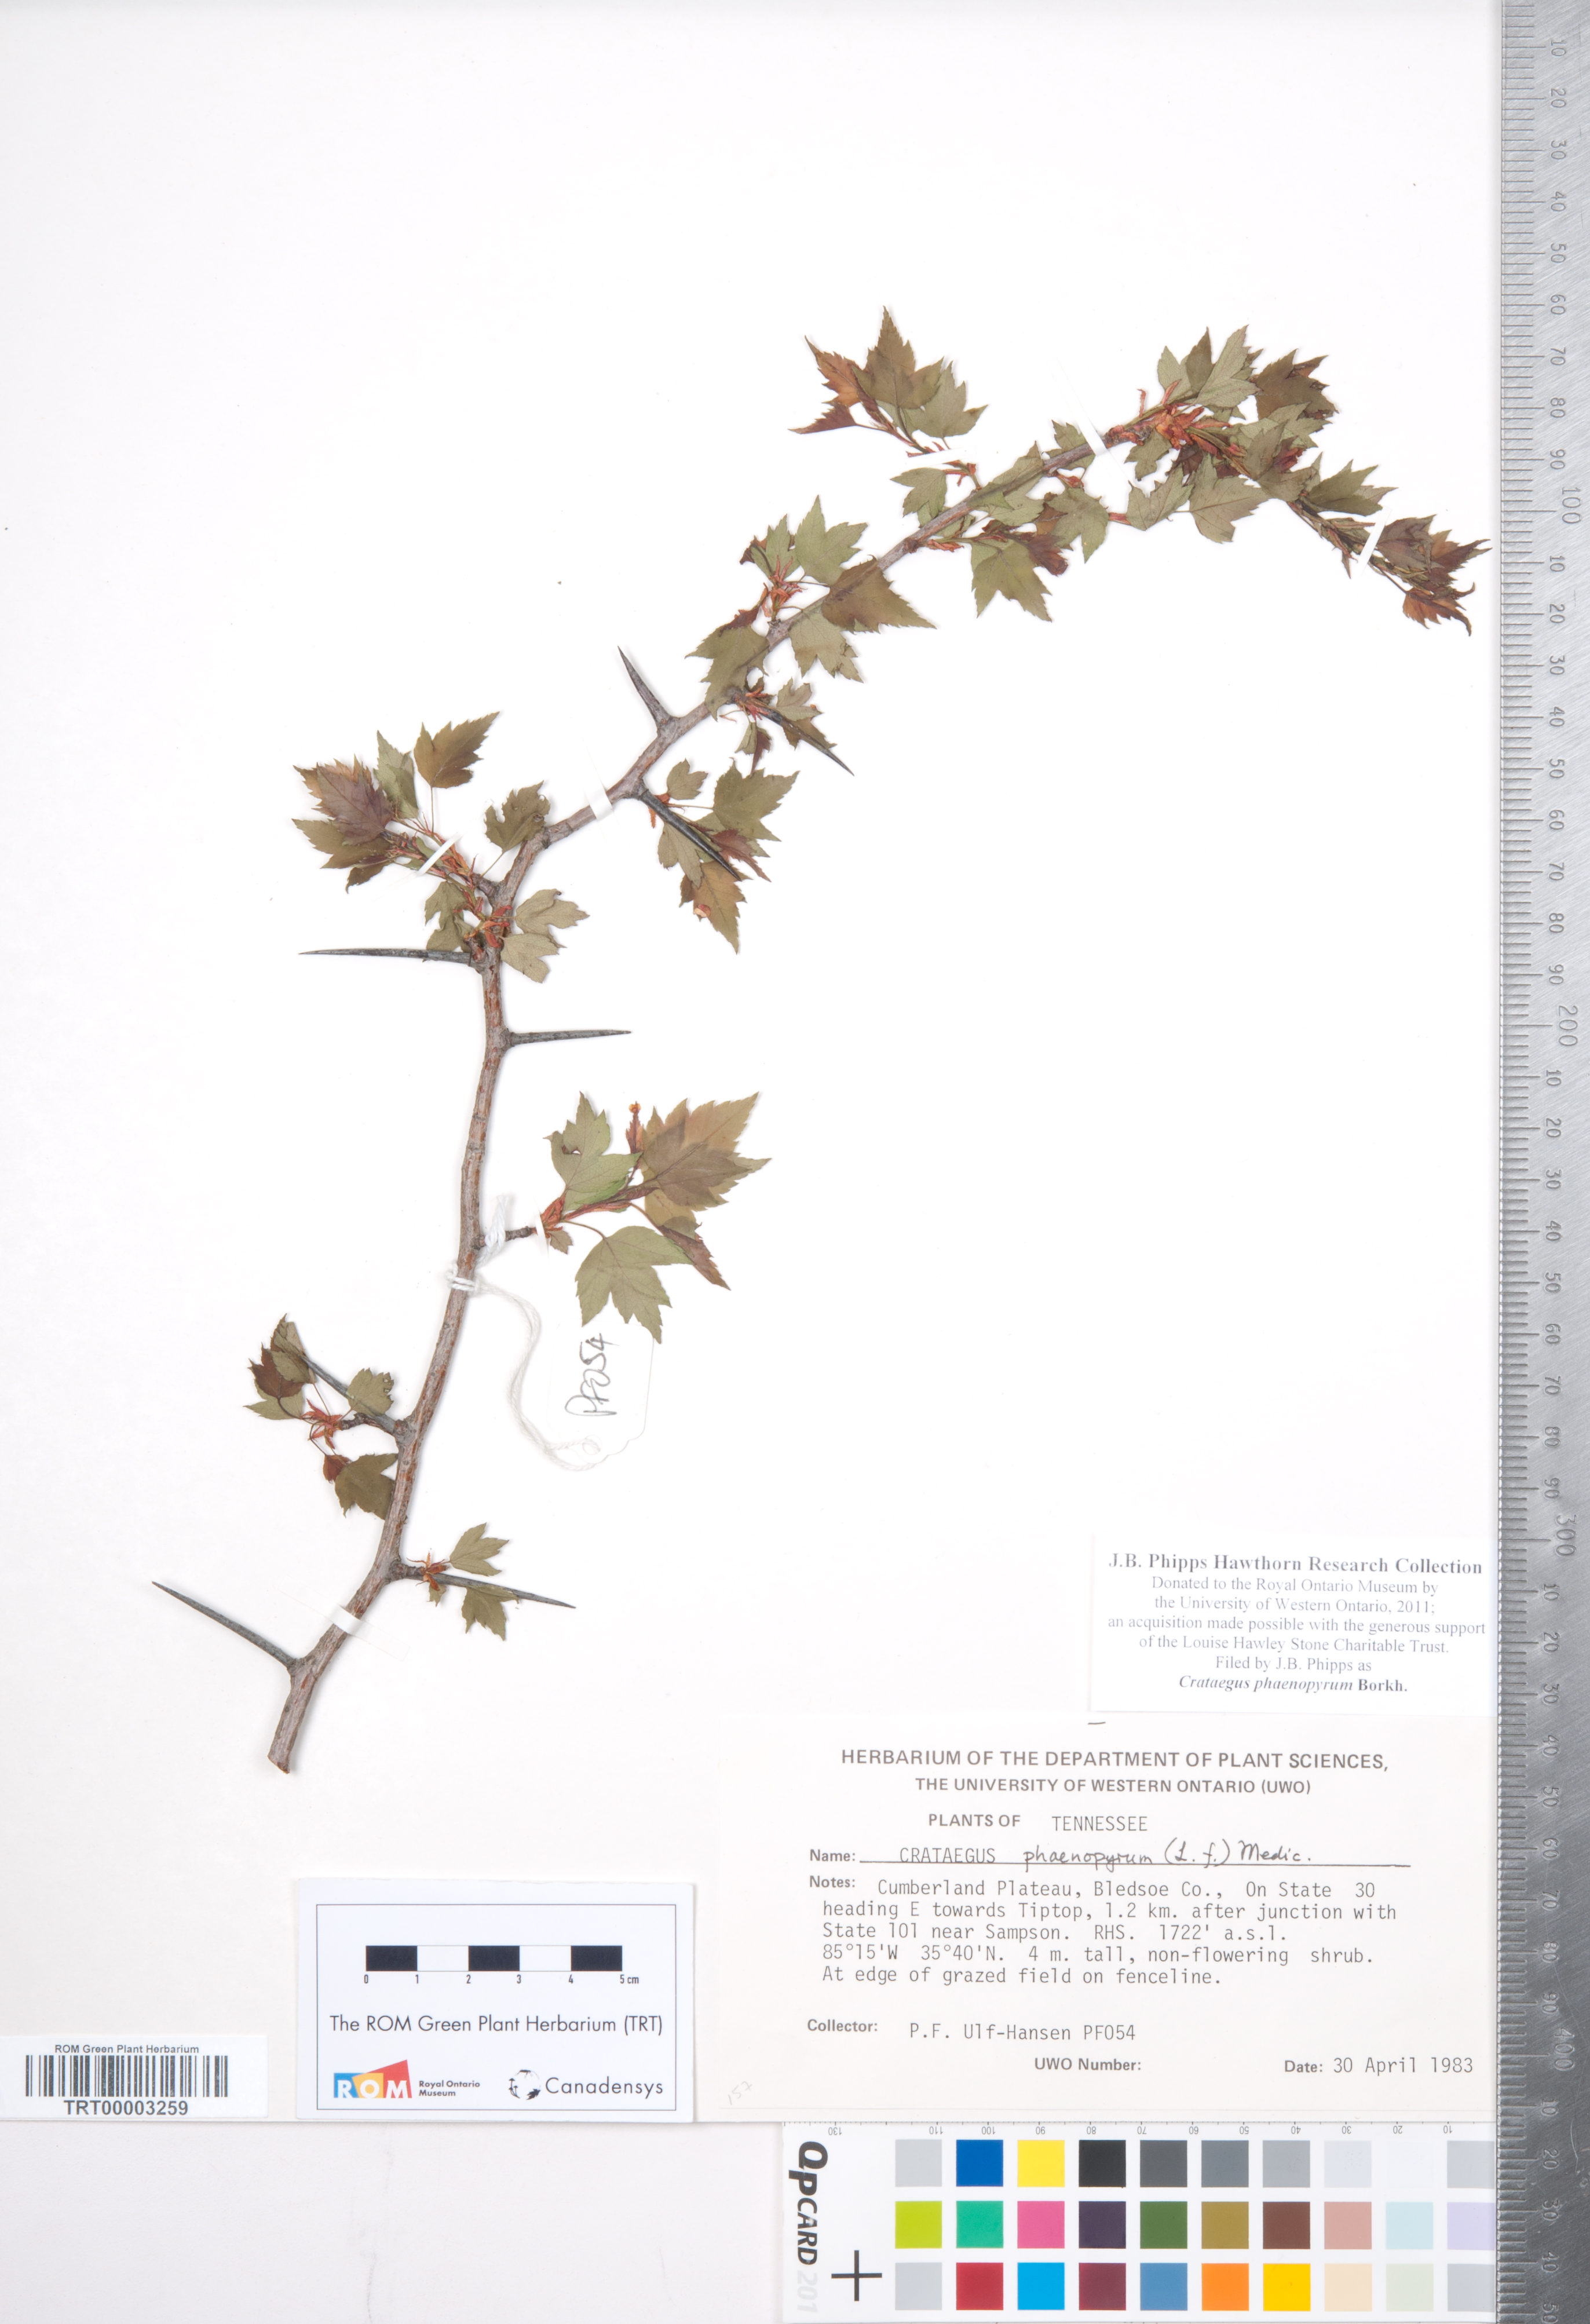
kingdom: Plantae
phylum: Tracheophyta
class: Magnoliopsida
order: Rosales
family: Rosaceae
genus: Crataegus
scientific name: Crataegus phaenopyrum
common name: Washington hawthorn
